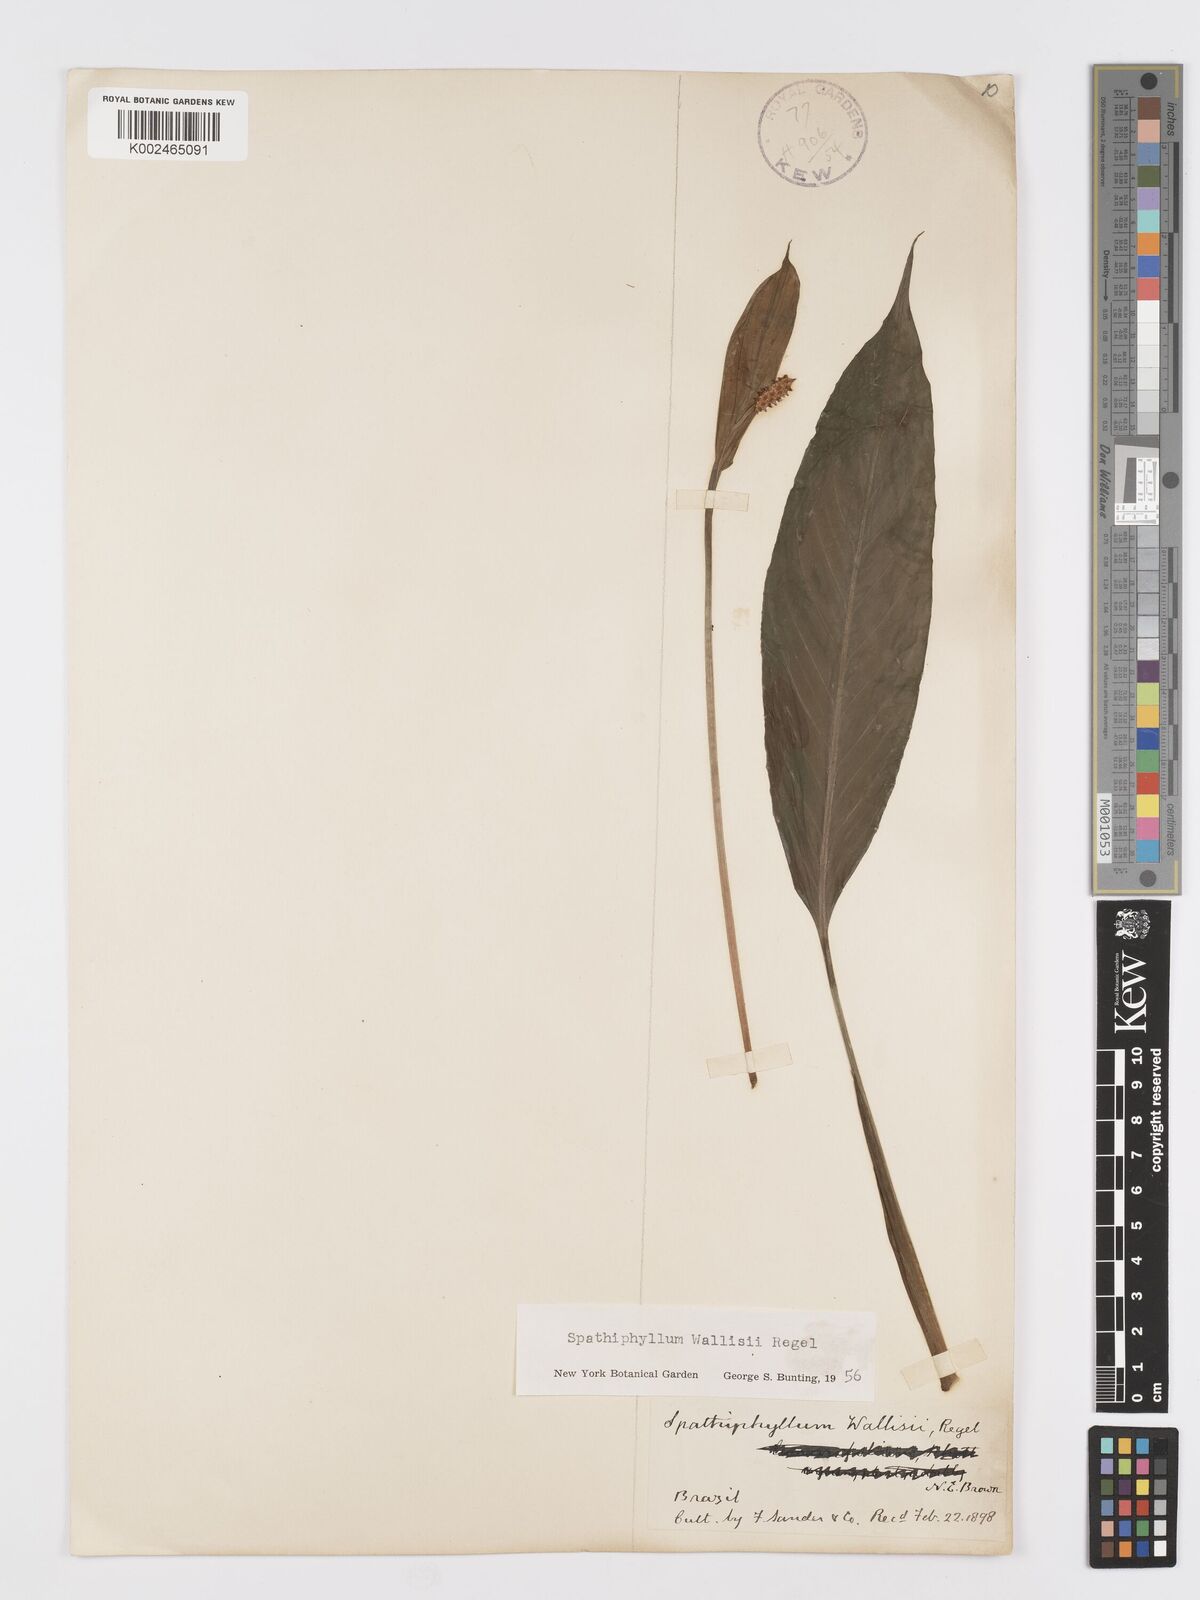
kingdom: Plantae
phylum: Tracheophyta
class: Liliopsida
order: Alismatales
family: Araceae
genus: Spathiphyllum
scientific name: Spathiphyllum wallisii
